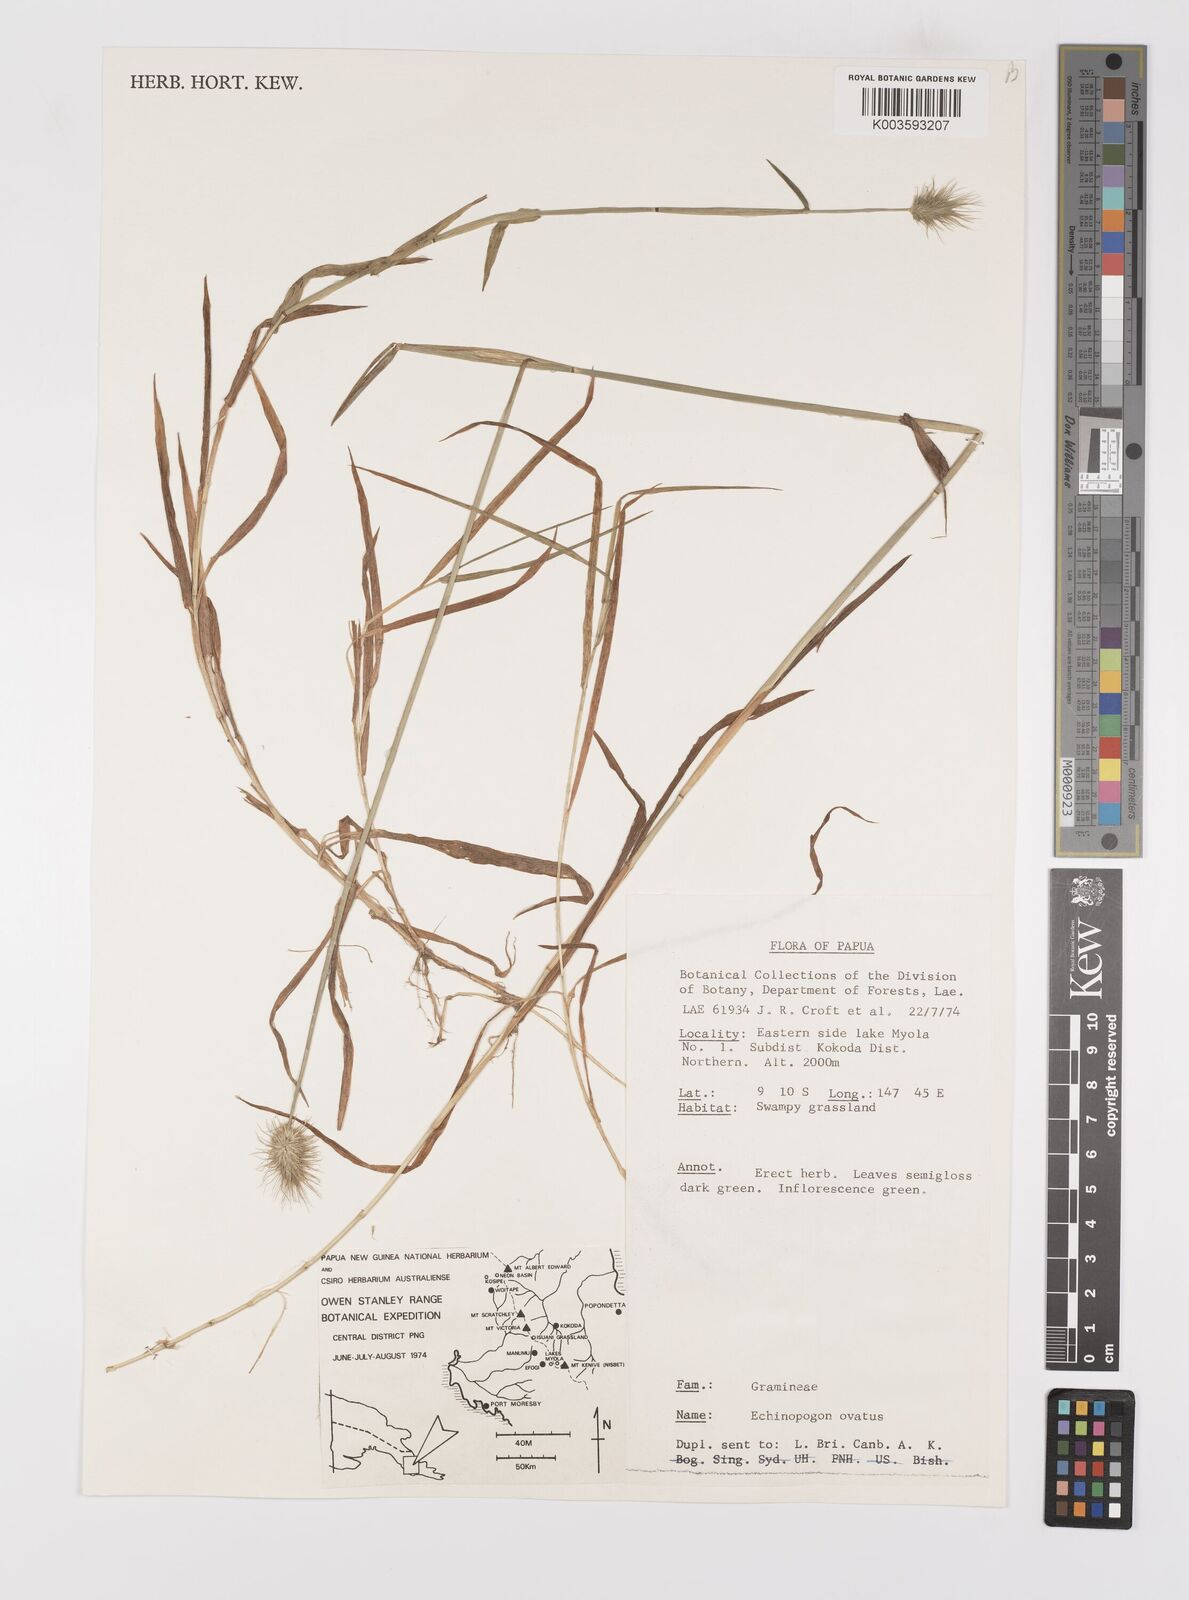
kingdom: Plantae
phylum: Tracheophyta
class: Liliopsida
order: Poales
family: Poaceae
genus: Echinopogon
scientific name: Echinopogon ovatus
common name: Hedgehog-grass
